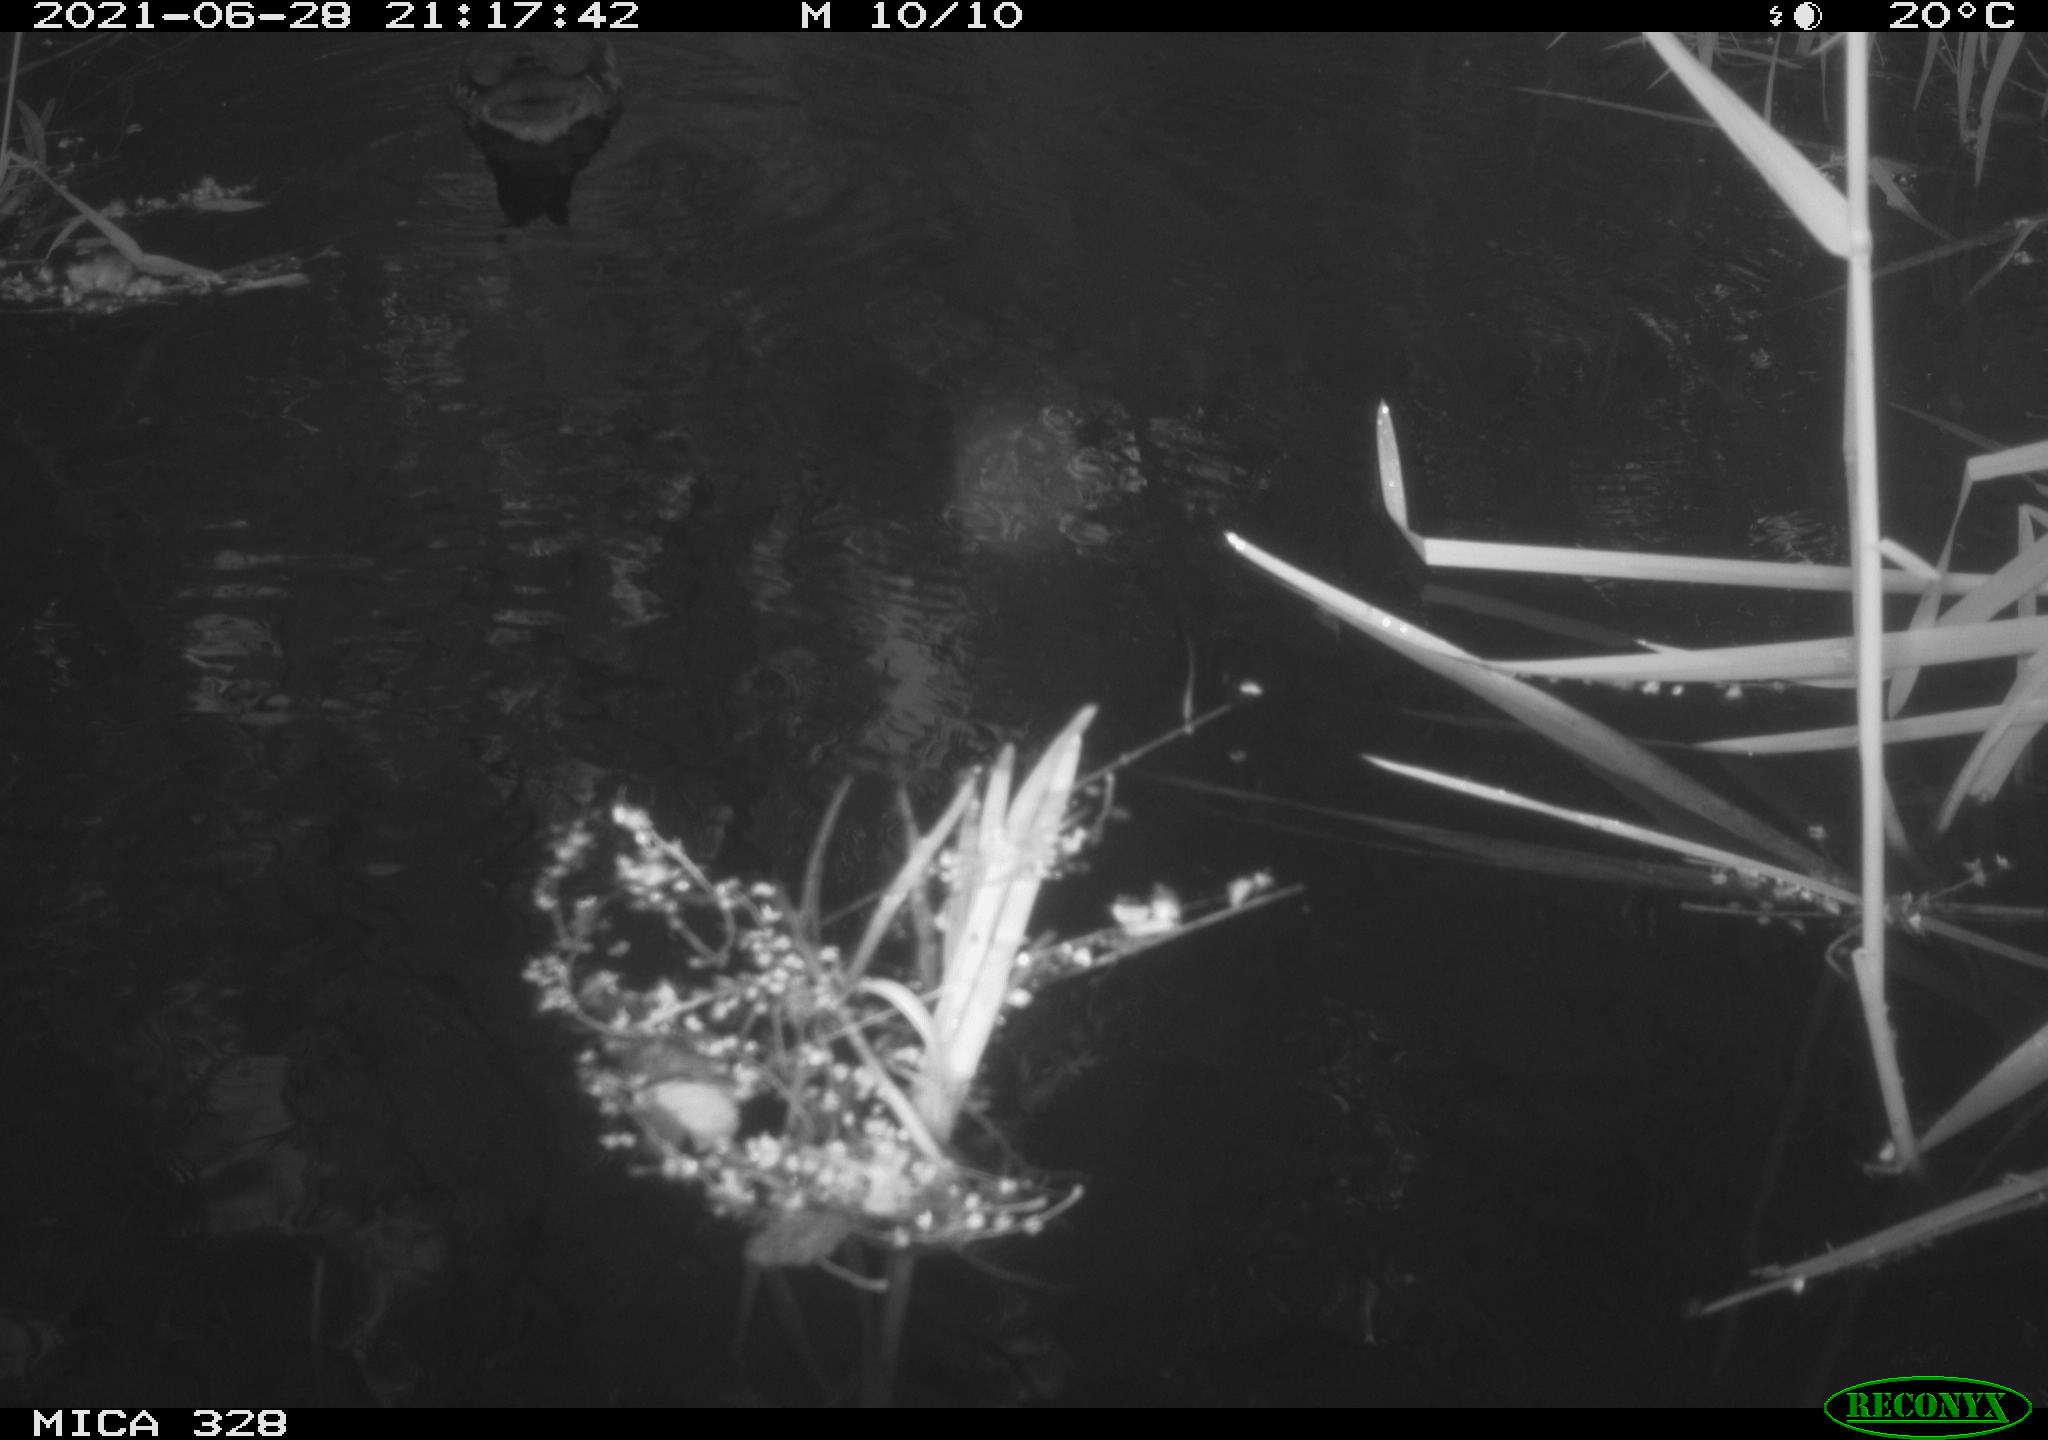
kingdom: Animalia
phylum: Chordata
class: Aves
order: Anseriformes
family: Anatidae
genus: Aix
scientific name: Aix galericulata
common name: Mandarin duck
